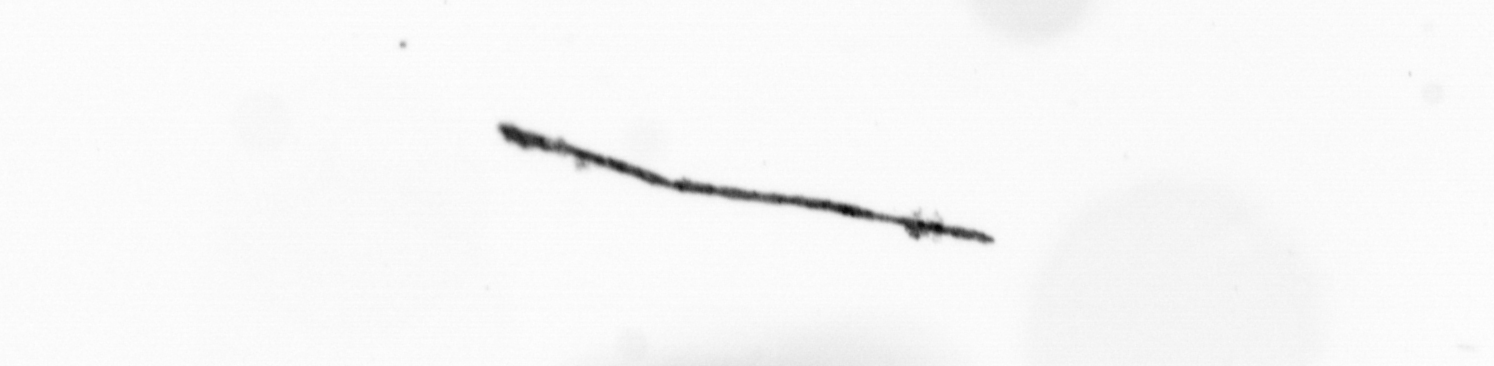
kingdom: Chromista
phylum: Ochrophyta
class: Bacillariophyceae
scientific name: Bacillariophyceae
